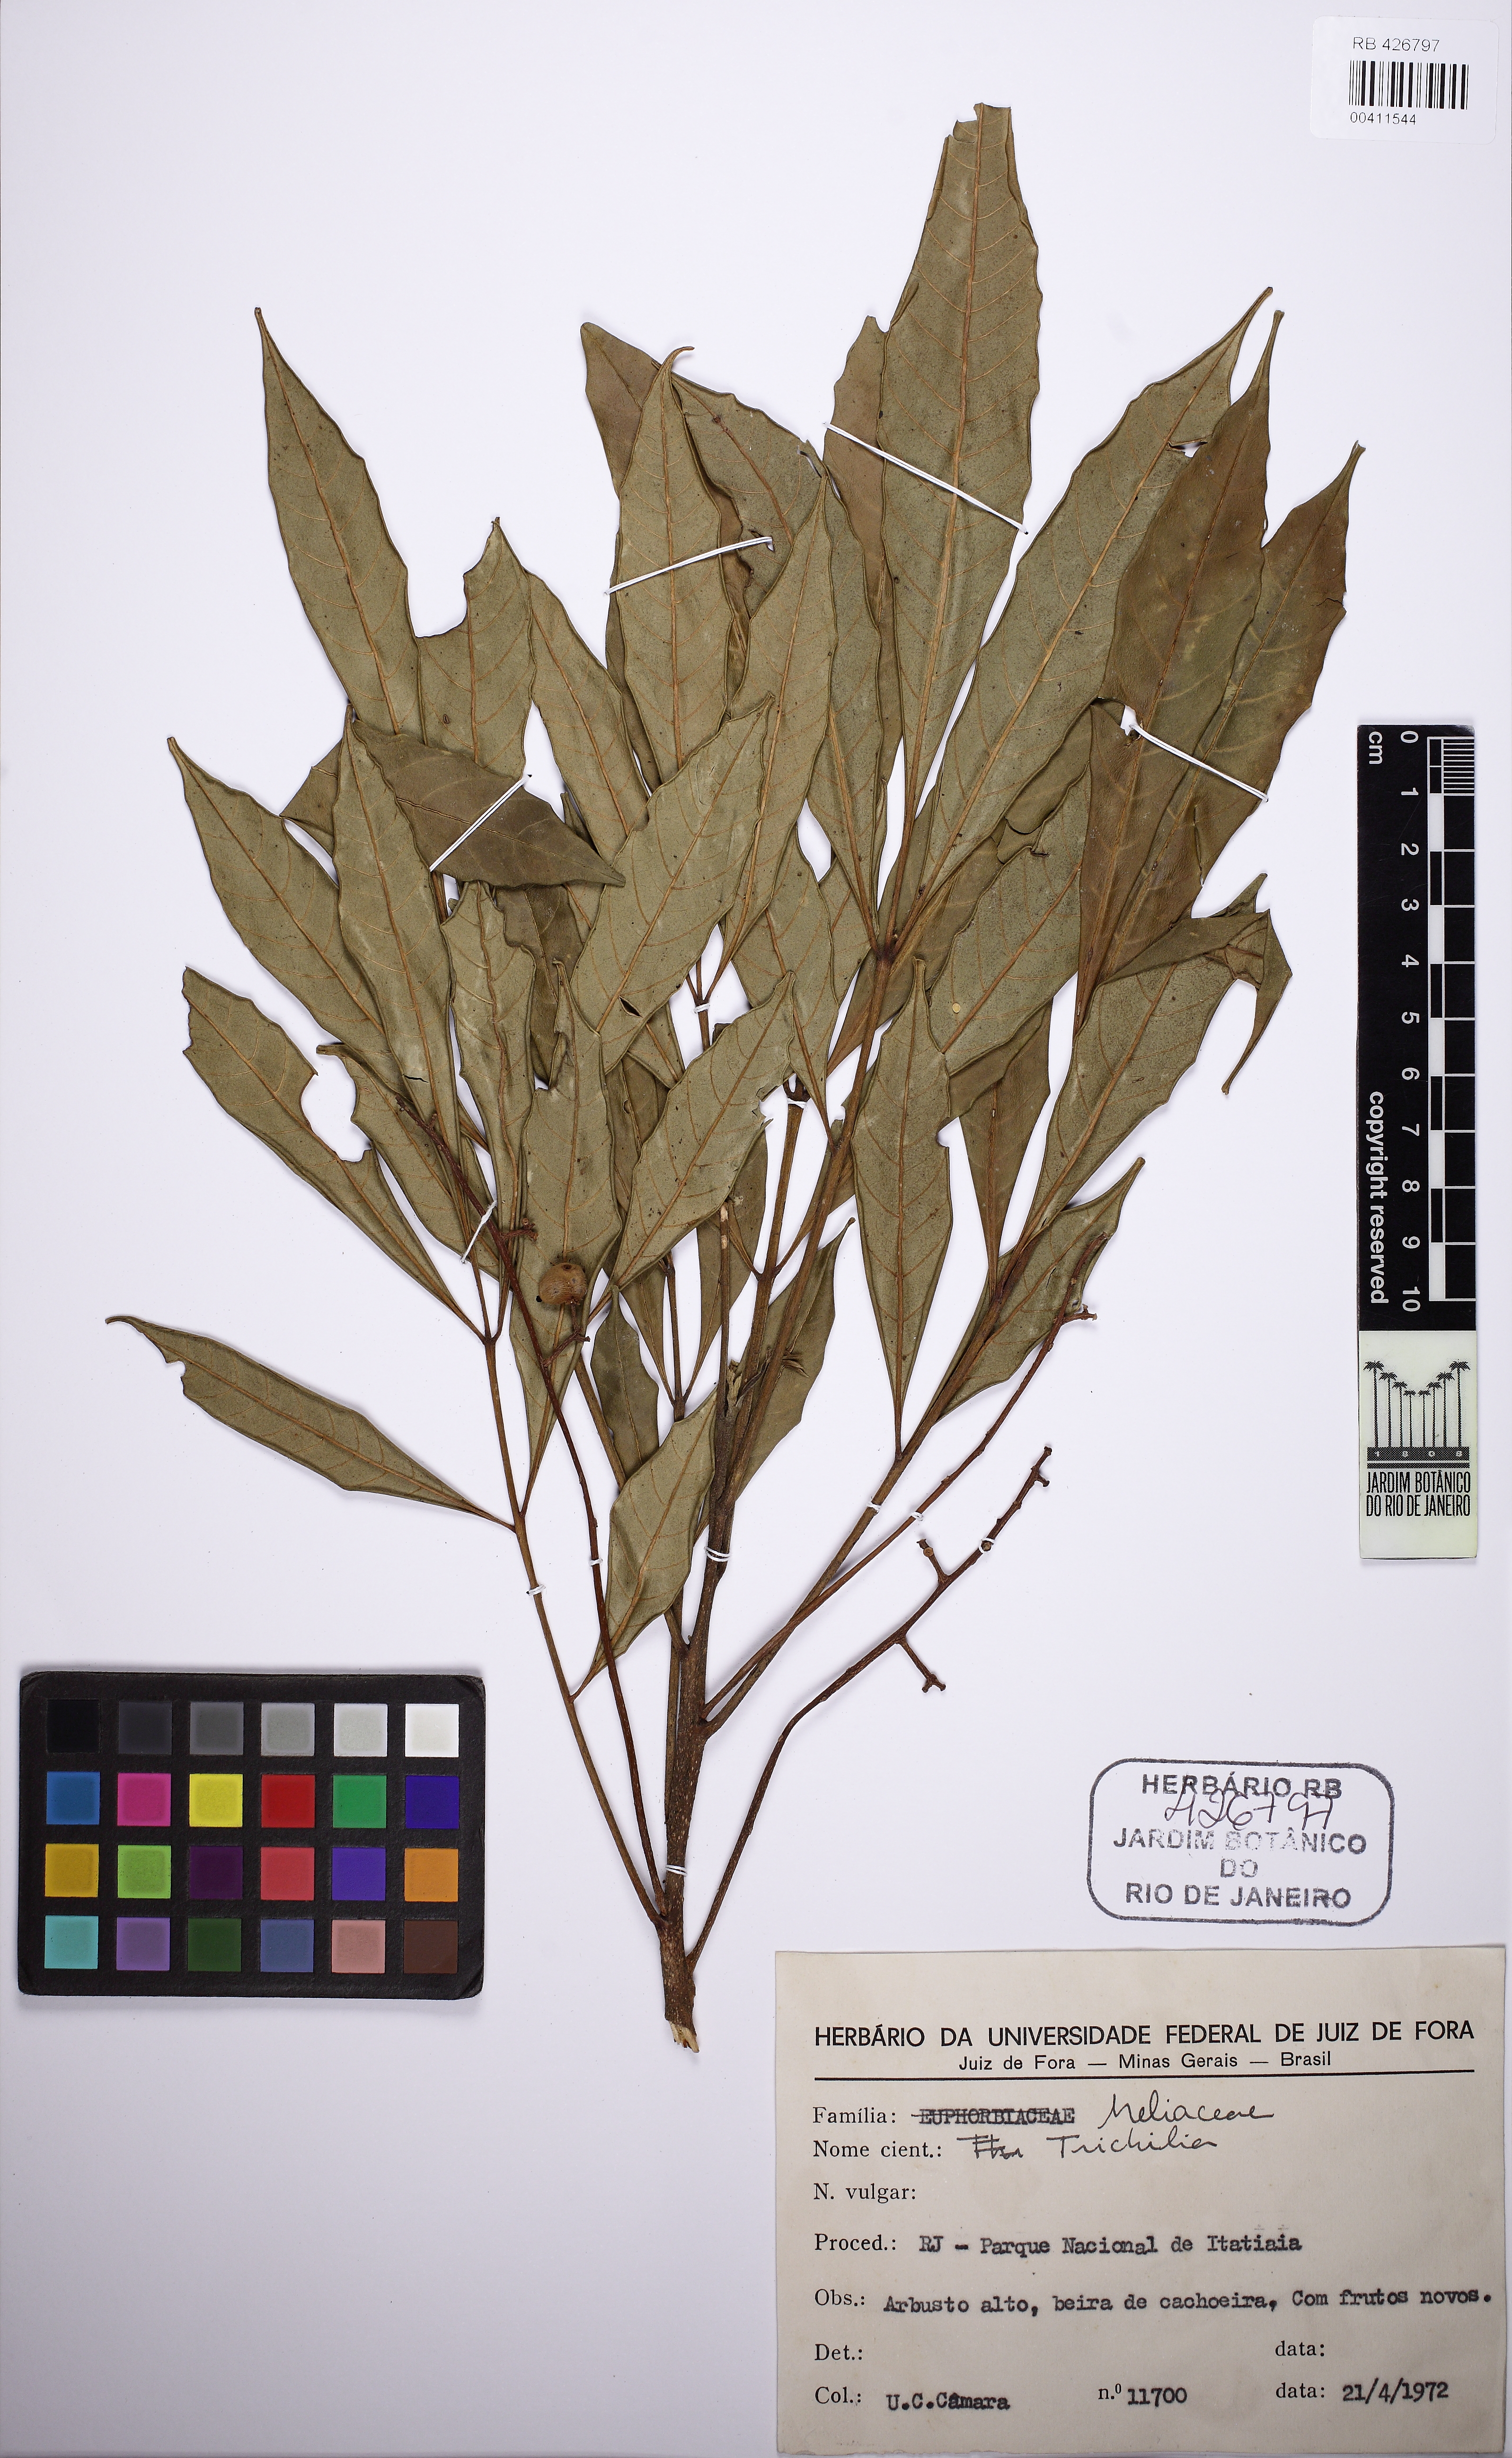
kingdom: Plantae
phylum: Tracheophyta
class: Magnoliopsida
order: Sapindales
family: Meliaceae
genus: Trichilia
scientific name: Trichilia pallens
